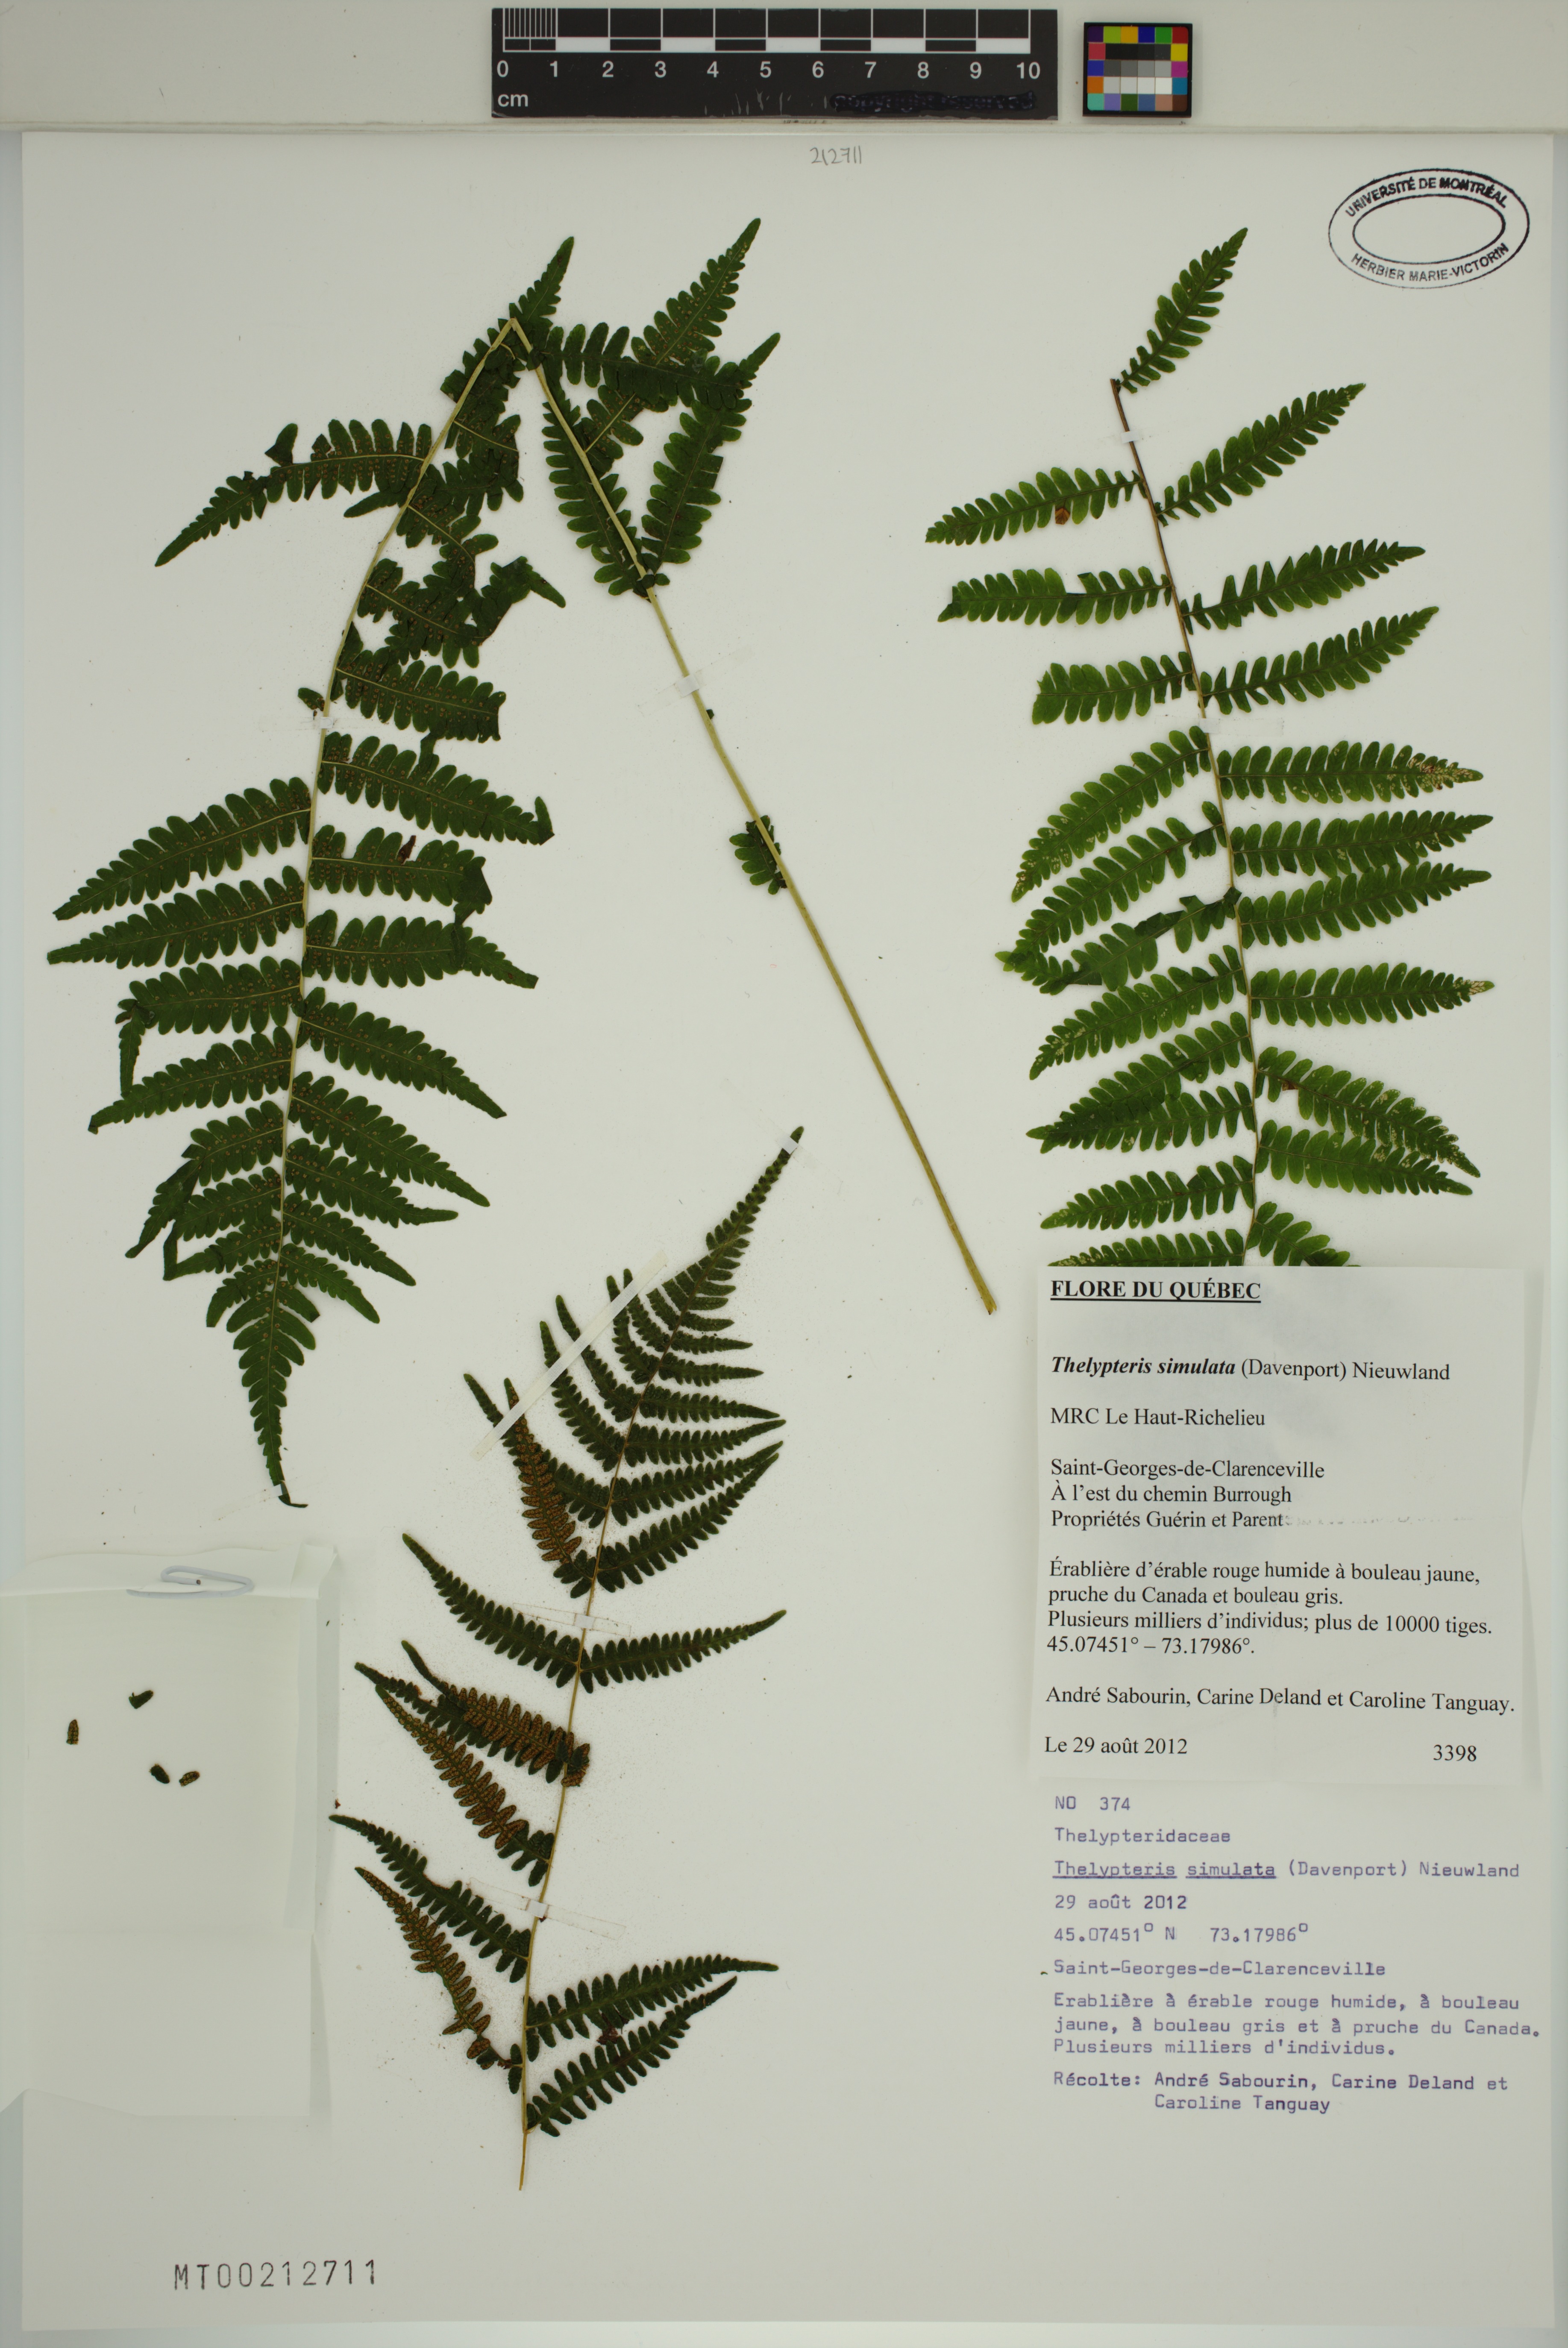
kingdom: Plantae
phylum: Tracheophyta
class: Polypodiopsida
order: Polypodiales
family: Thelypteridaceae
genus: Coryphopteris
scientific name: Coryphopteris simulata
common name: Bog fern
